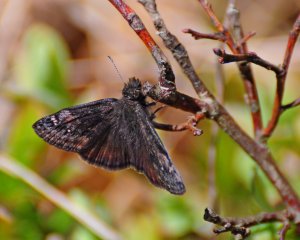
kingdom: Animalia
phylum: Arthropoda
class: Insecta
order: Lepidoptera
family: Hesperiidae
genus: Gesta
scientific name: Gesta
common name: Wild Indigo Duskywing
